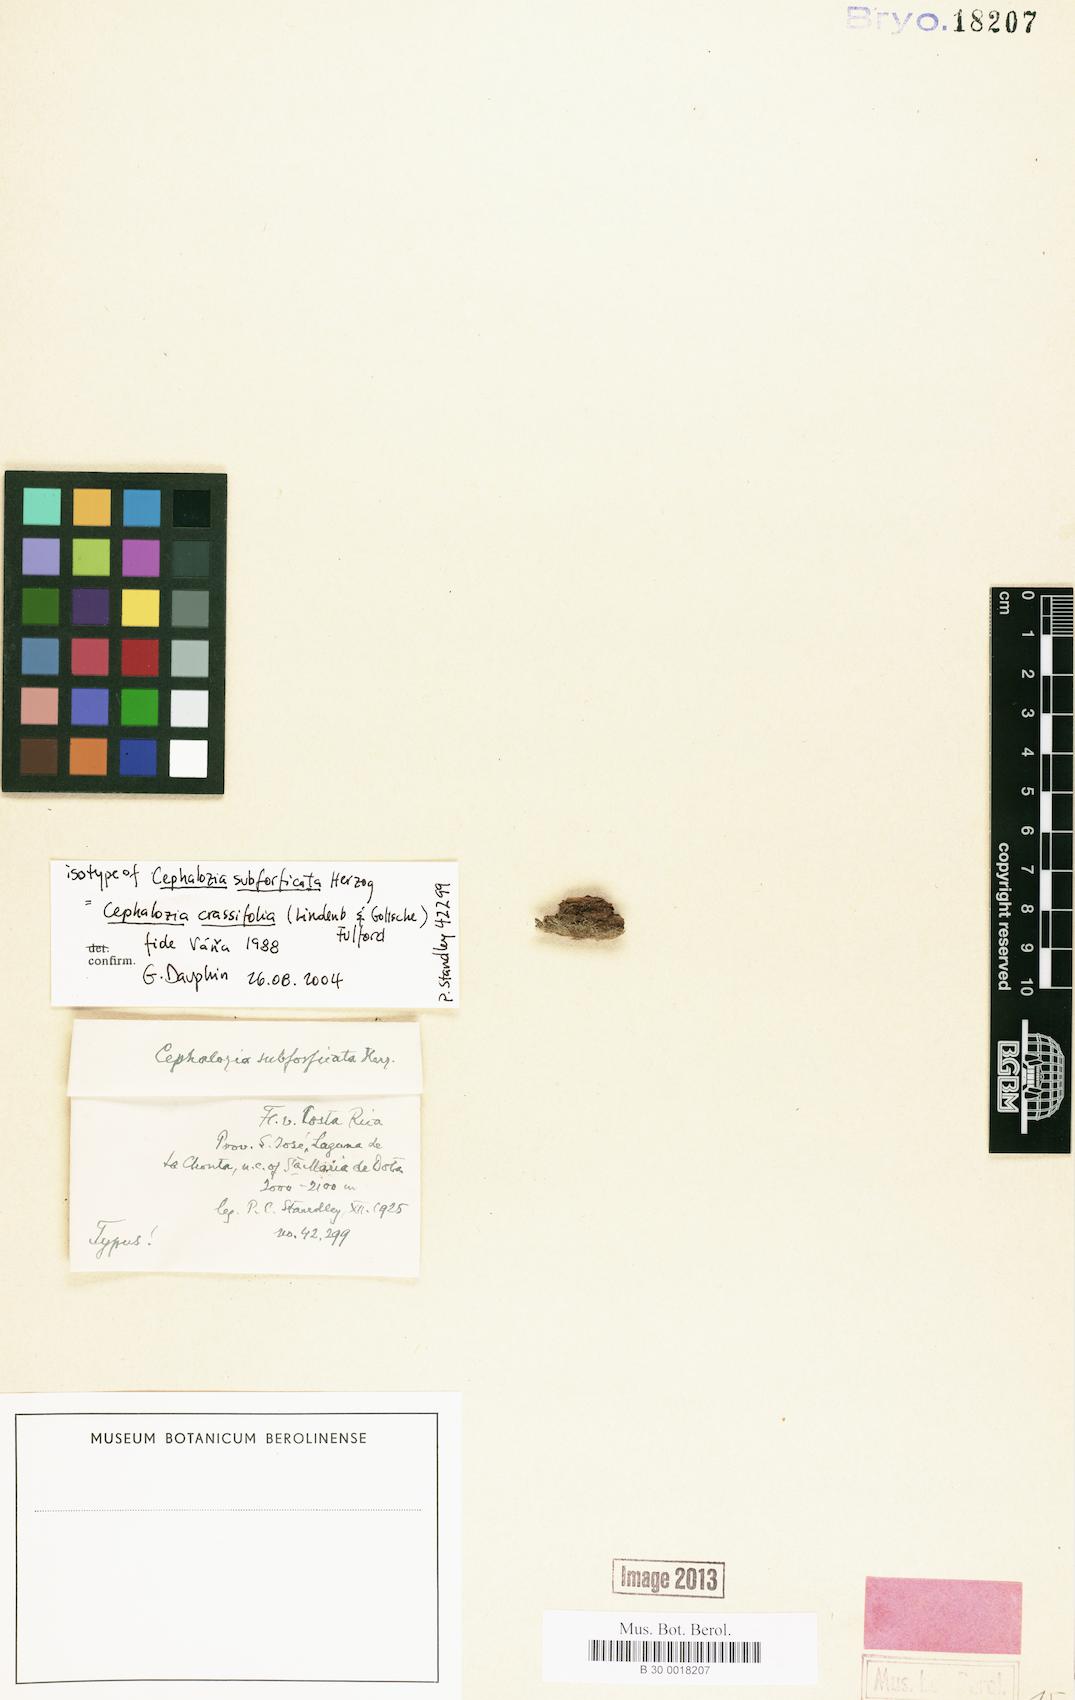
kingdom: Plantae
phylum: Marchantiophyta
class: Jungermanniopsida
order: Jungermanniales
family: Cephaloziaceae
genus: Fuscocephaloziopsis
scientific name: Fuscocephaloziopsis crassifolia
